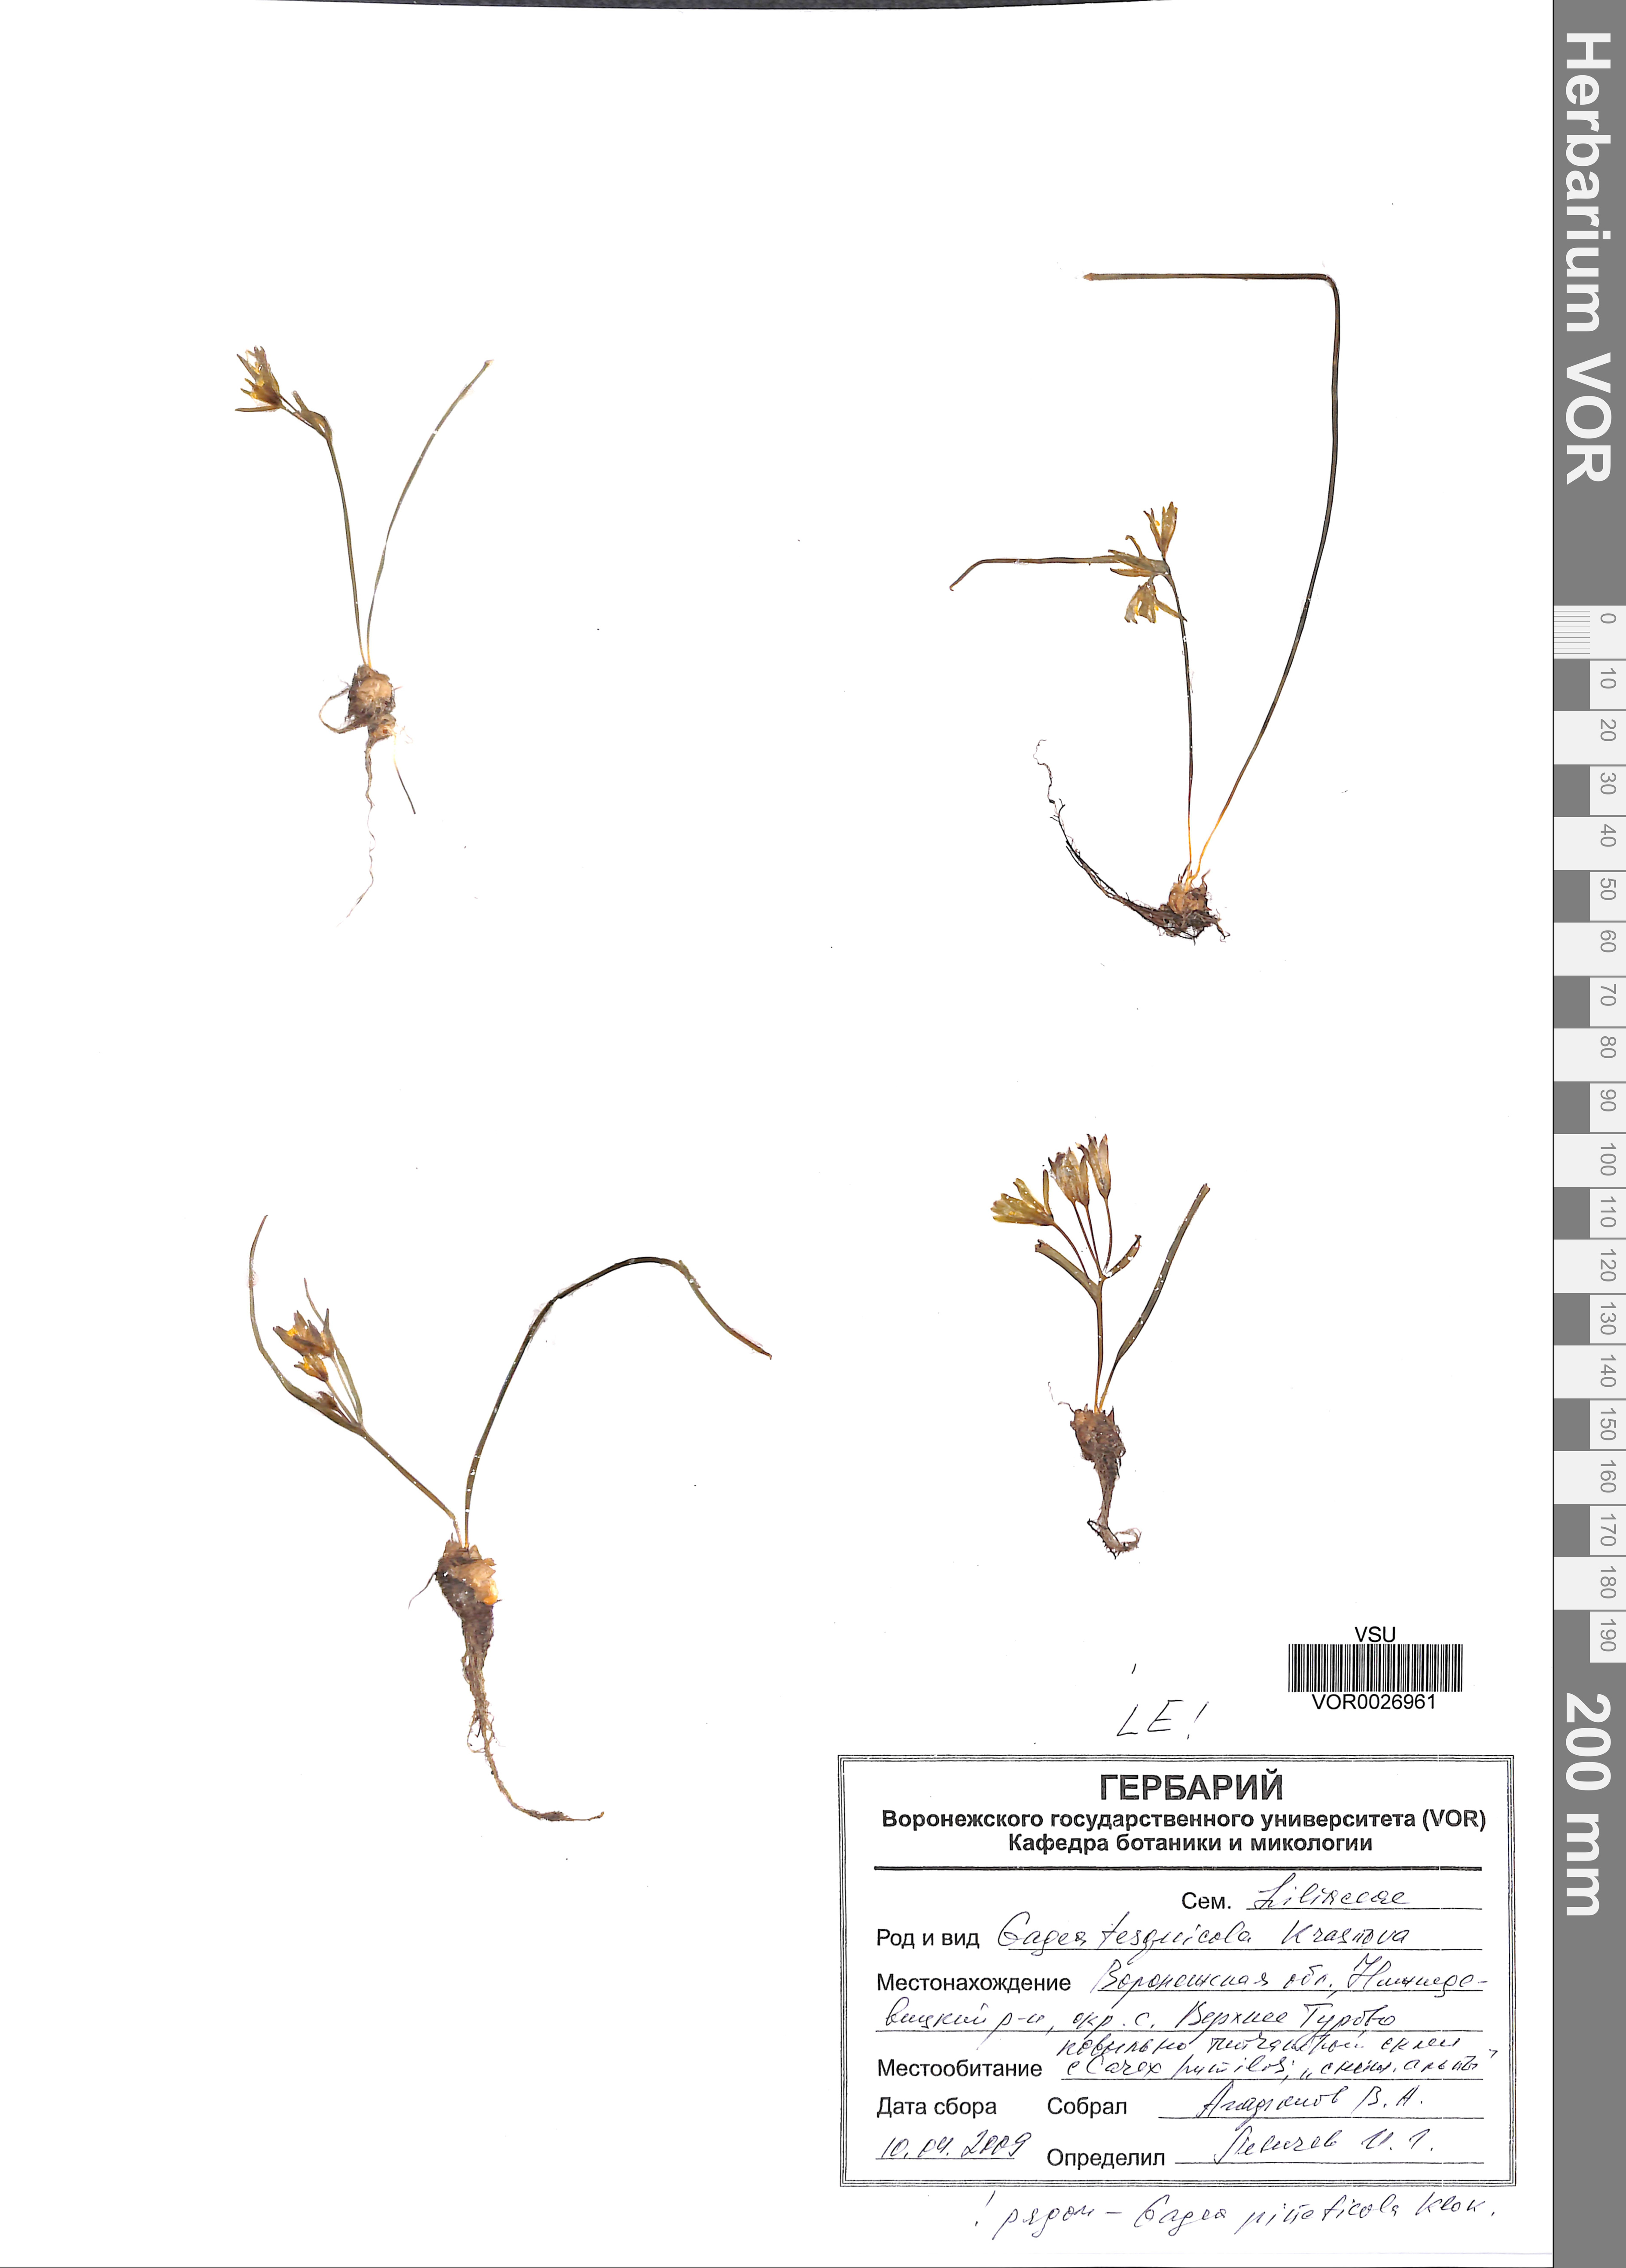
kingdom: Plantae
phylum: Tracheophyta
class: Liliopsida
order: Liliales
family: Liliaceae
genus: Gagea
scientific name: Gagea tesquicola
